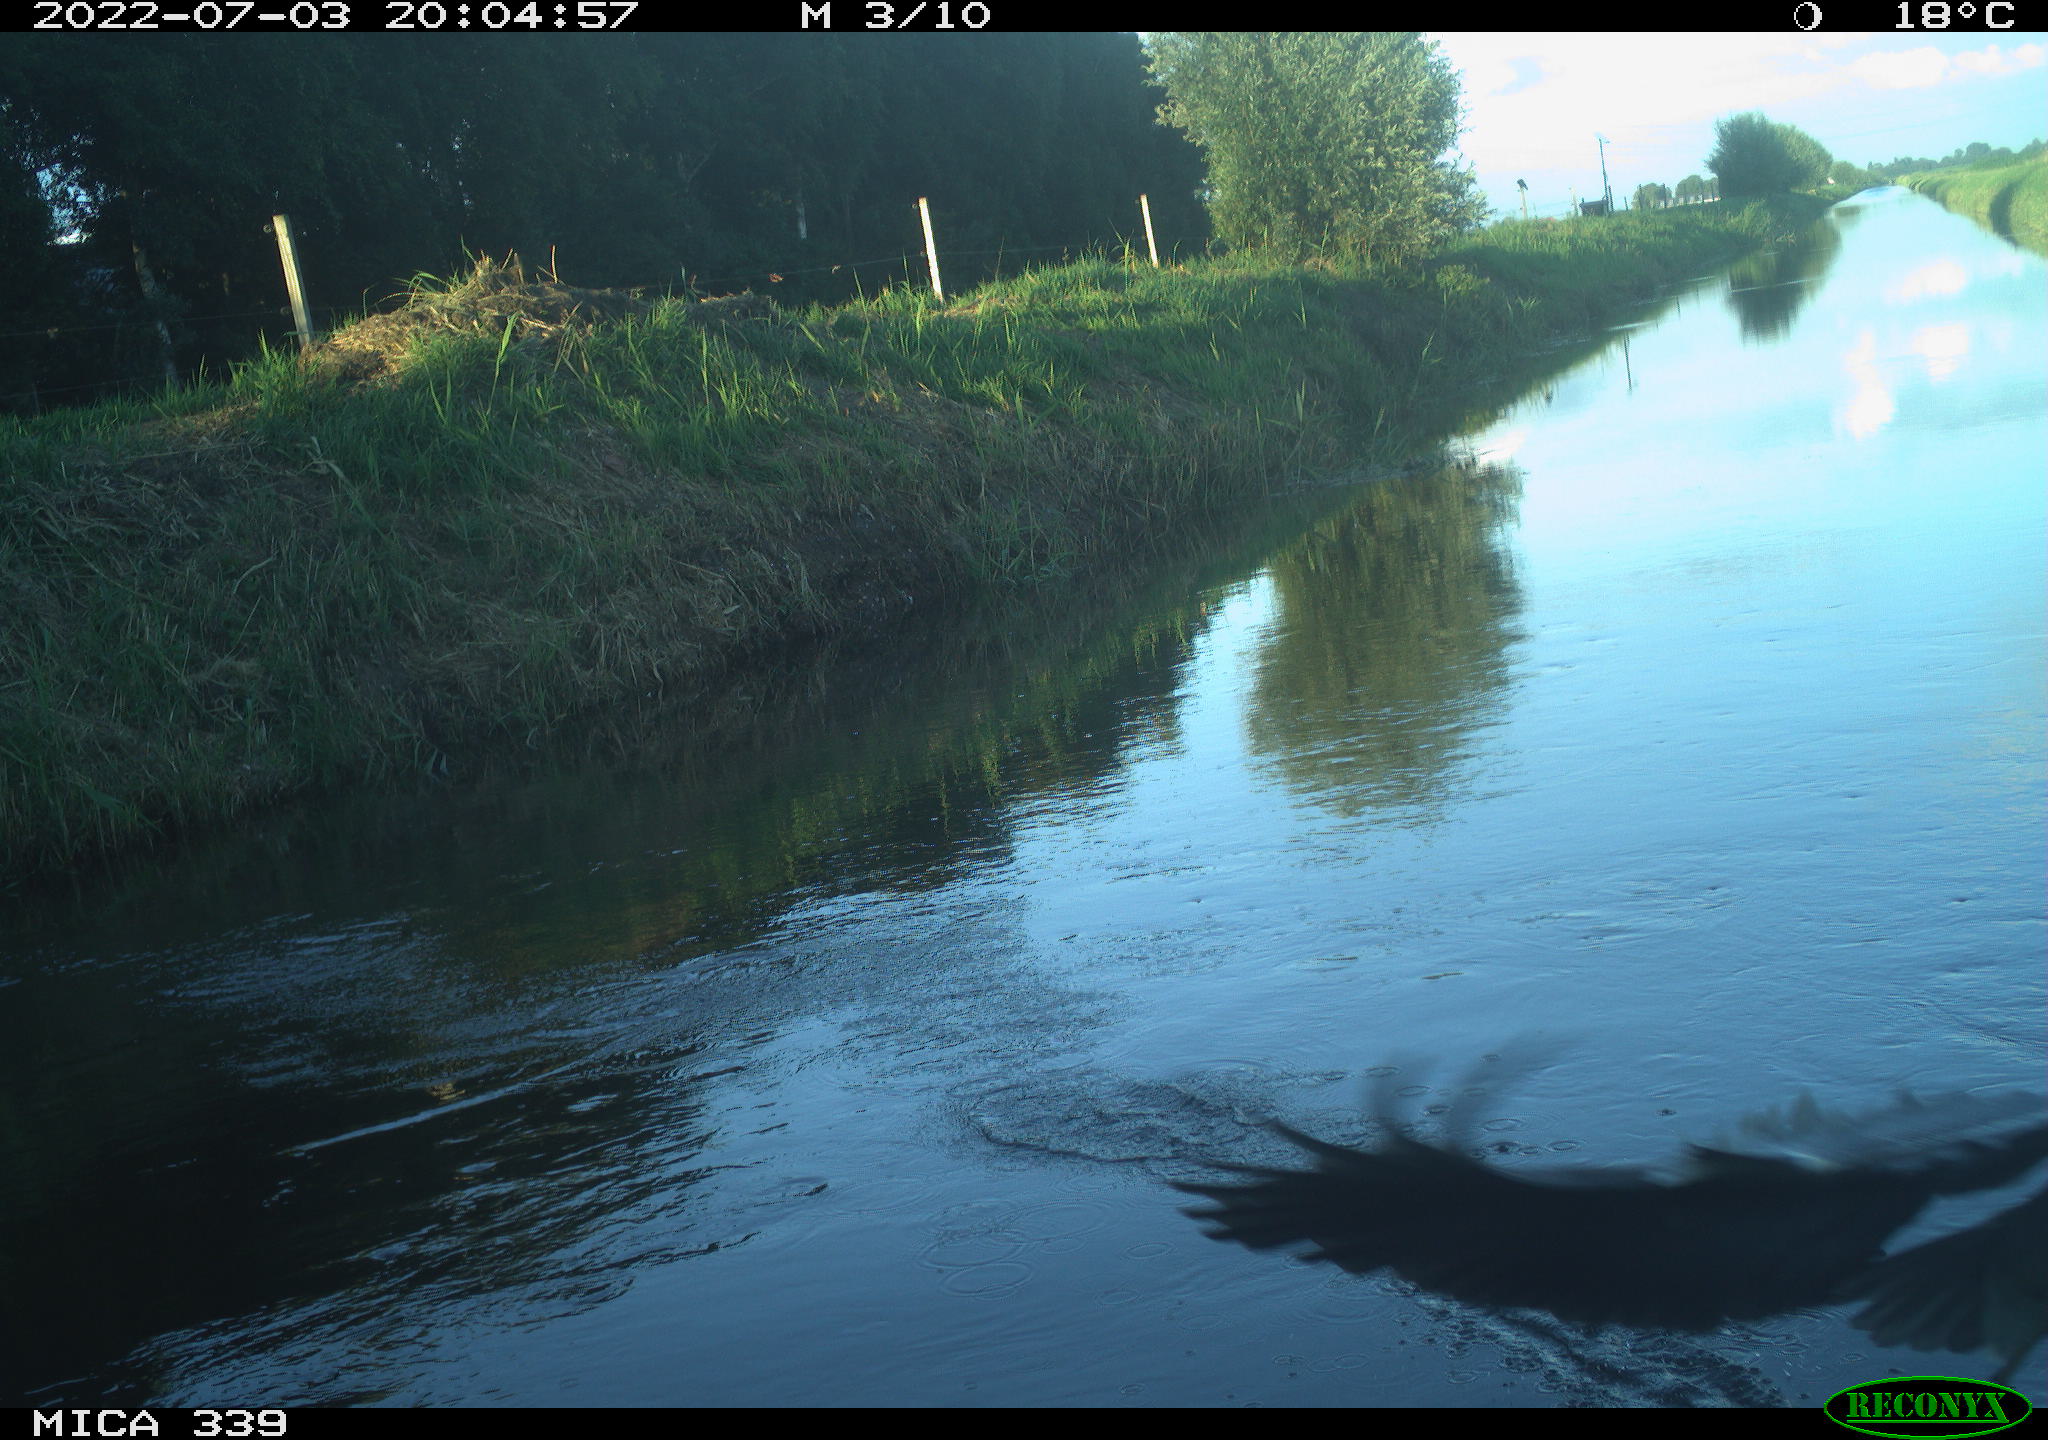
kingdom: Animalia
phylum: Chordata
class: Aves
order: Pelecaniformes
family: Ardeidae
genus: Ardea
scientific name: Ardea
